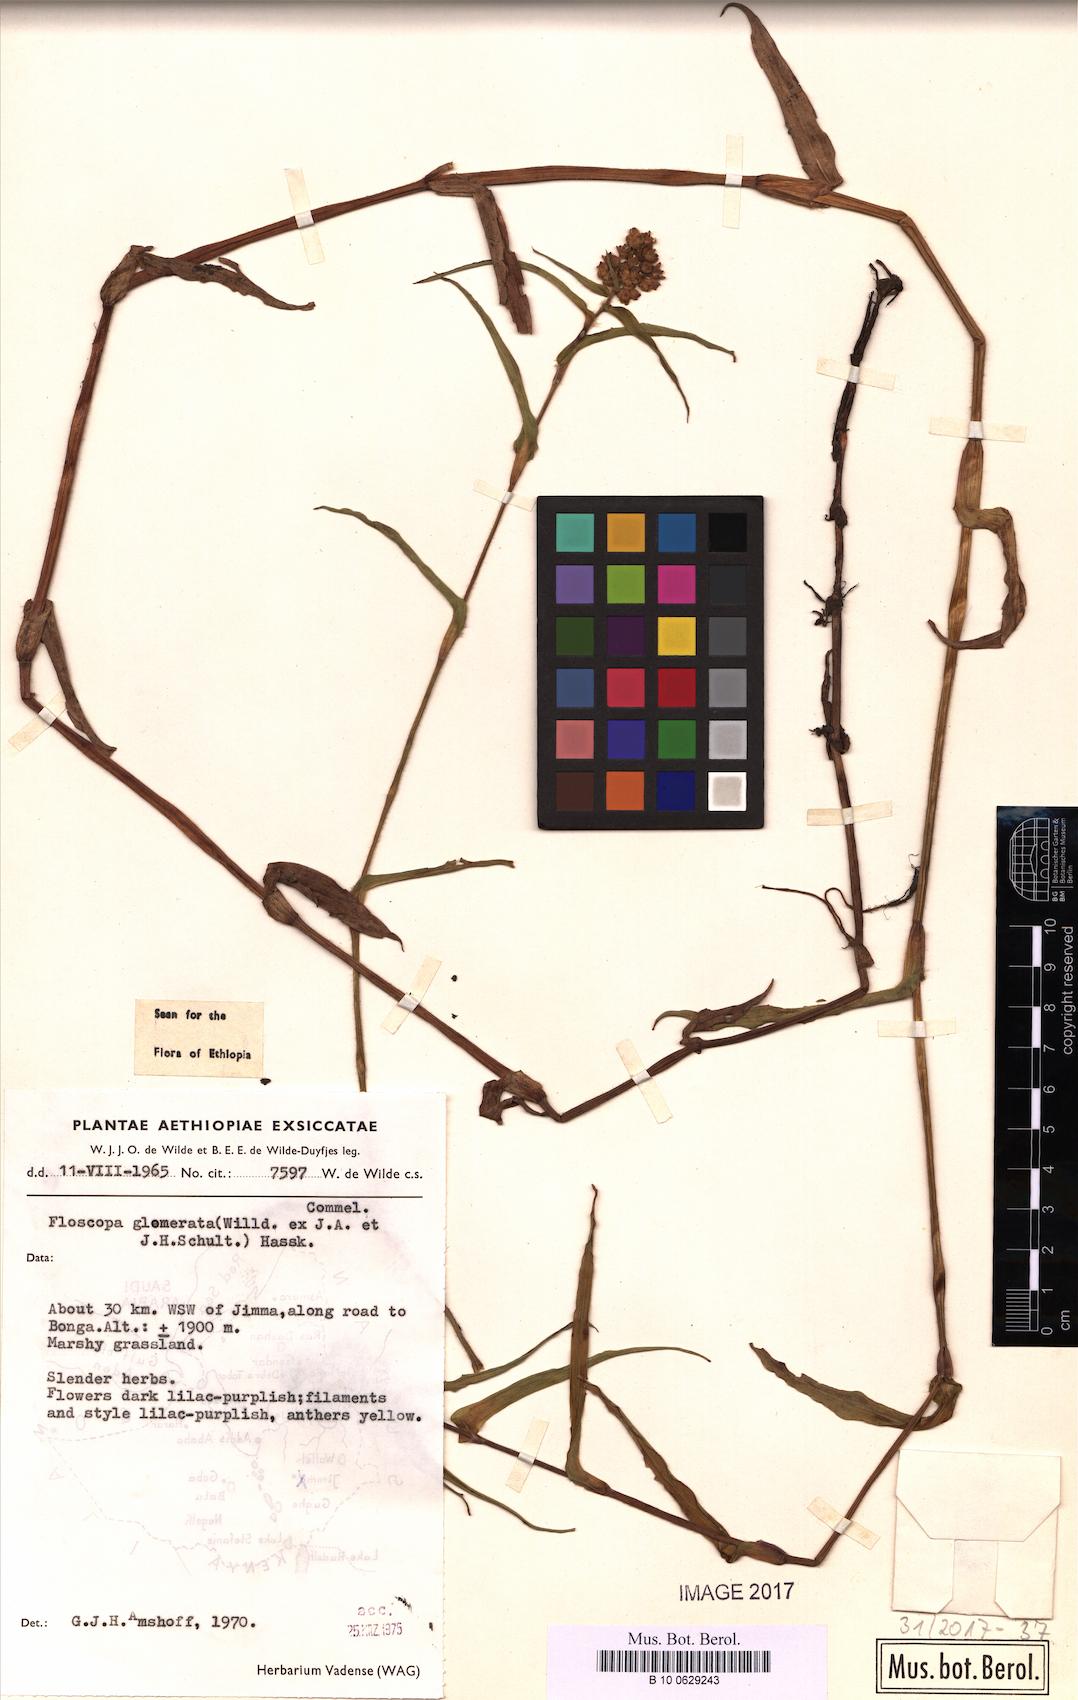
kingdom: Plantae
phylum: Tracheophyta
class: Liliopsida
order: Commelinales
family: Commelinaceae
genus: Floscopa
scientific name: Floscopa glomerata
